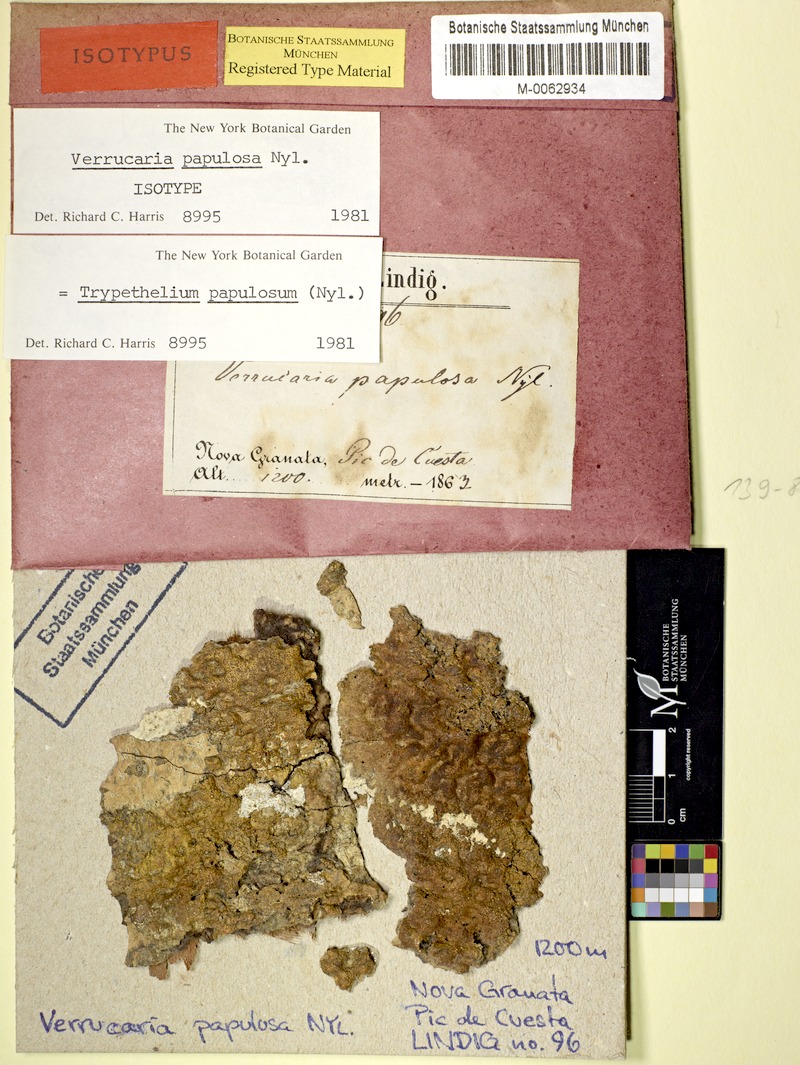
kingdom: Fungi
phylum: Ascomycota
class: Dothideomycetes
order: Trypetheliales
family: Trypetheliaceae
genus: Astrothelium
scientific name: Astrothelium papulosum
